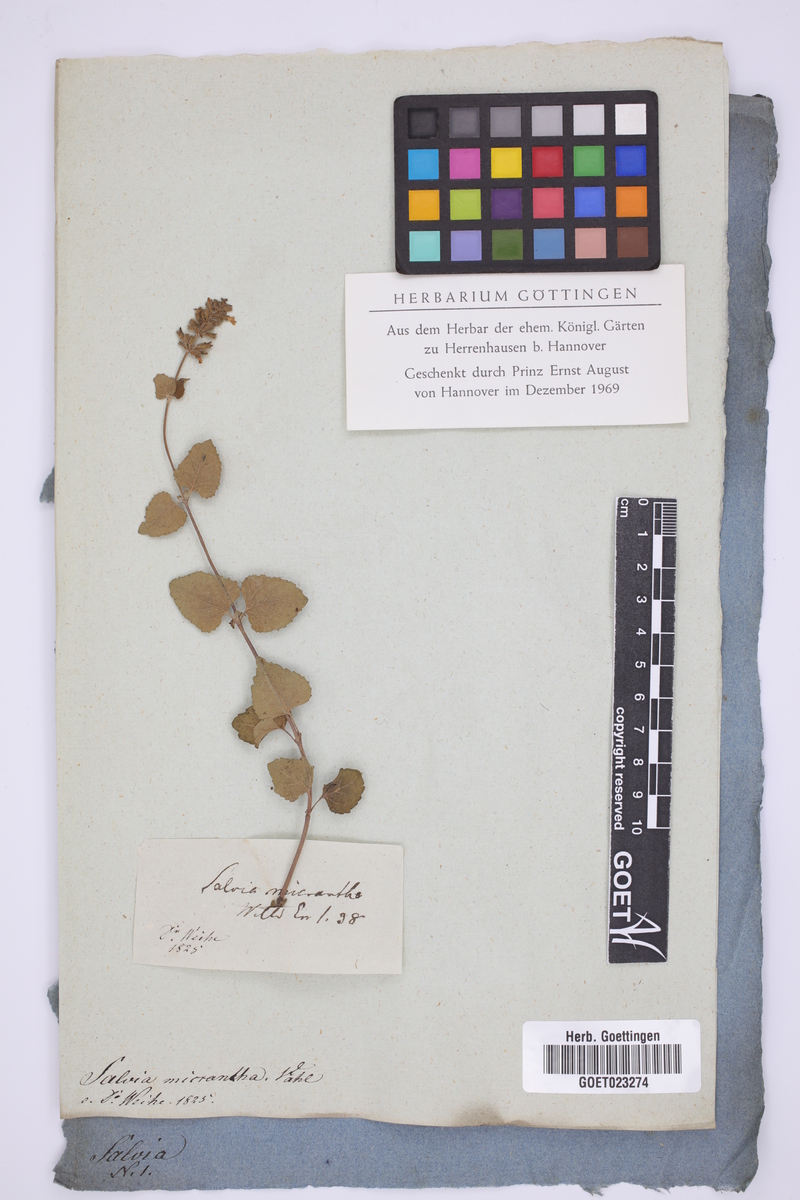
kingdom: Plantae
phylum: Tracheophyta
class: Magnoliopsida
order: Lamiales
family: Lamiaceae
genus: Salvia
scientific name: Salvia serotina
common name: Catnip
